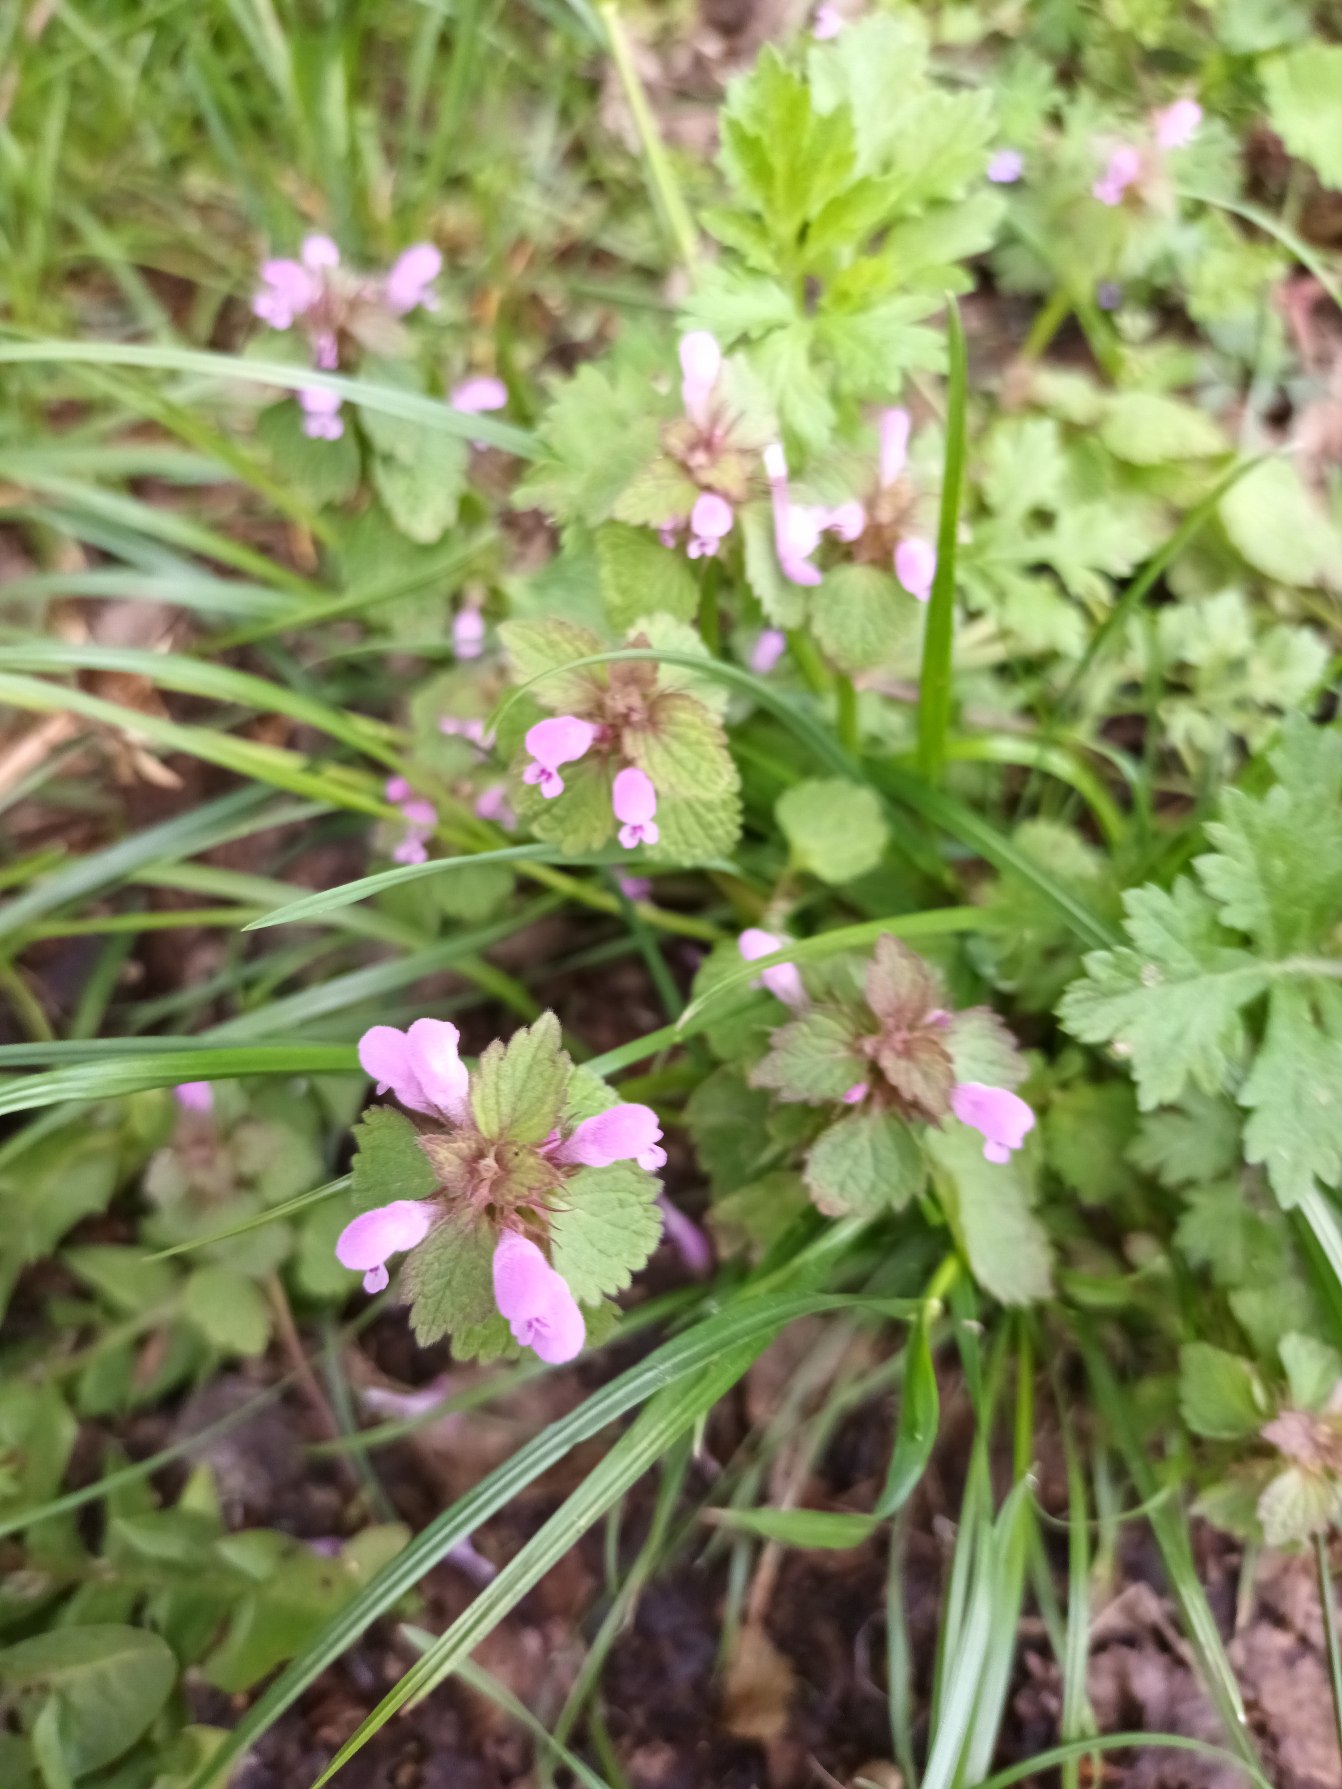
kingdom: Plantae
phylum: Tracheophyta
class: Magnoliopsida
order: Lamiales
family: Lamiaceae
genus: Lamium
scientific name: Lamium purpureum
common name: Rød tvetand
